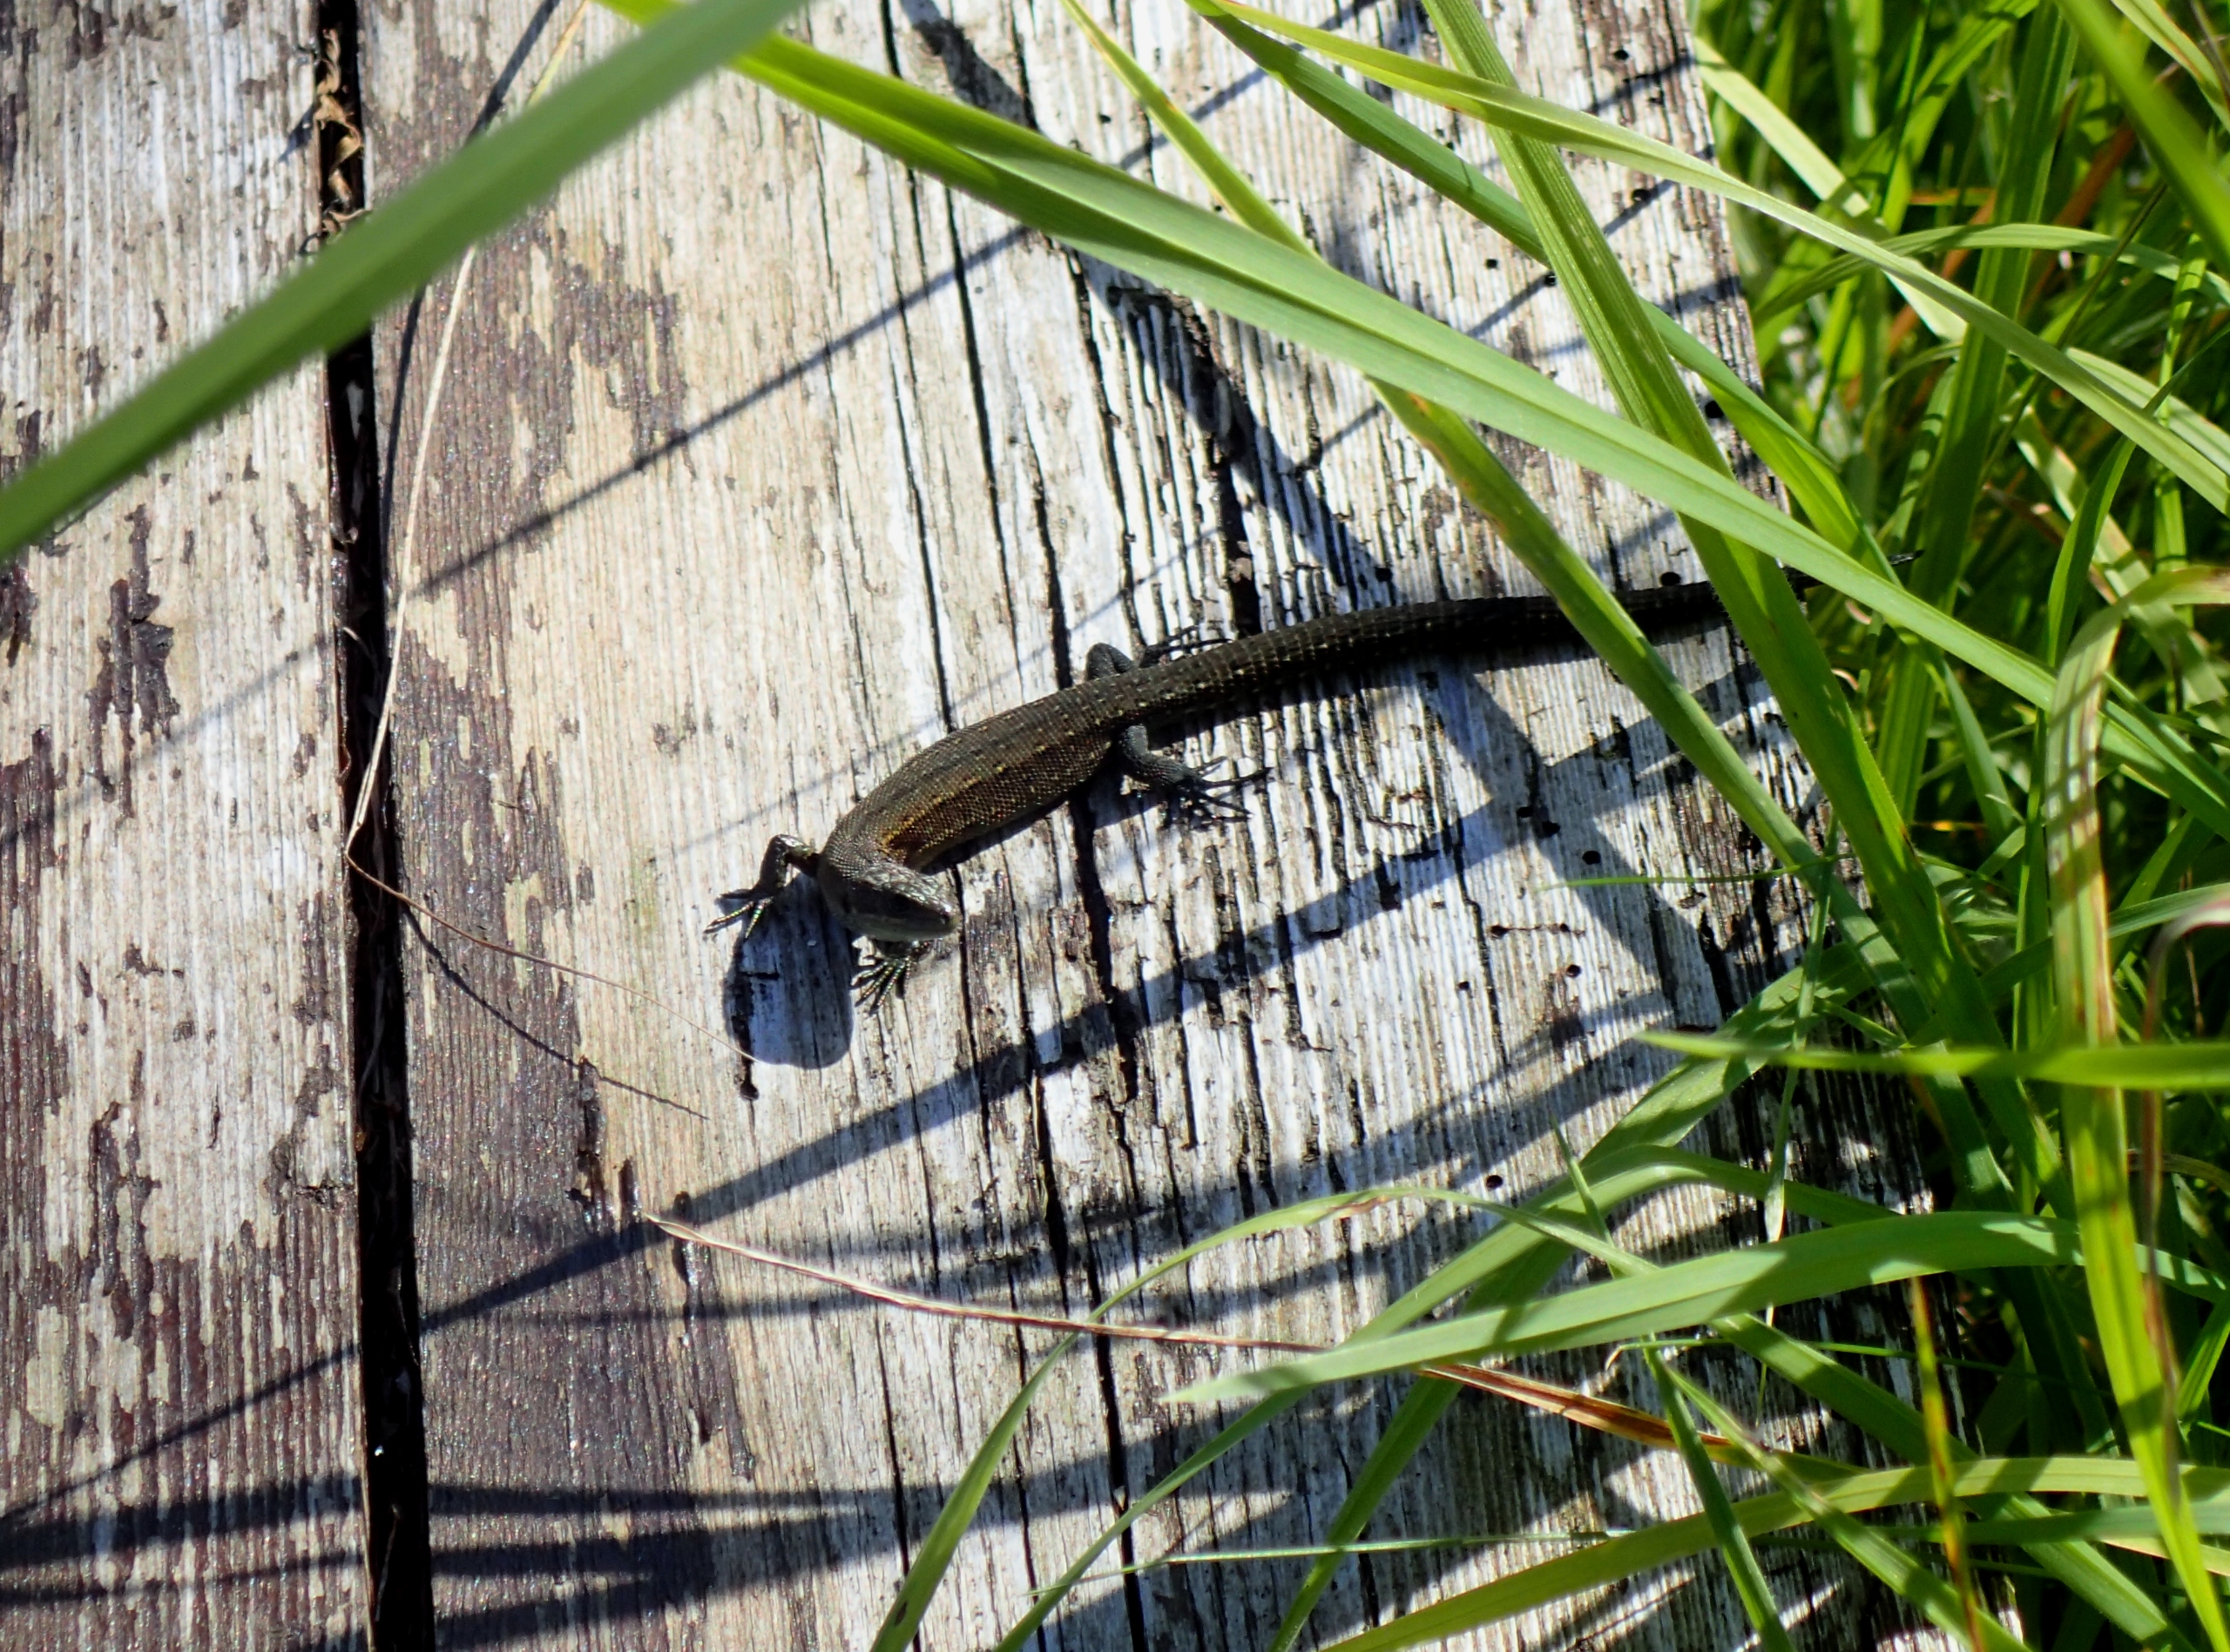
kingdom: Animalia
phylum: Chordata
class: Squamata
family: Lacertidae
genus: Zootoca
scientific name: Zootoca vivipara
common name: Skovfirben
